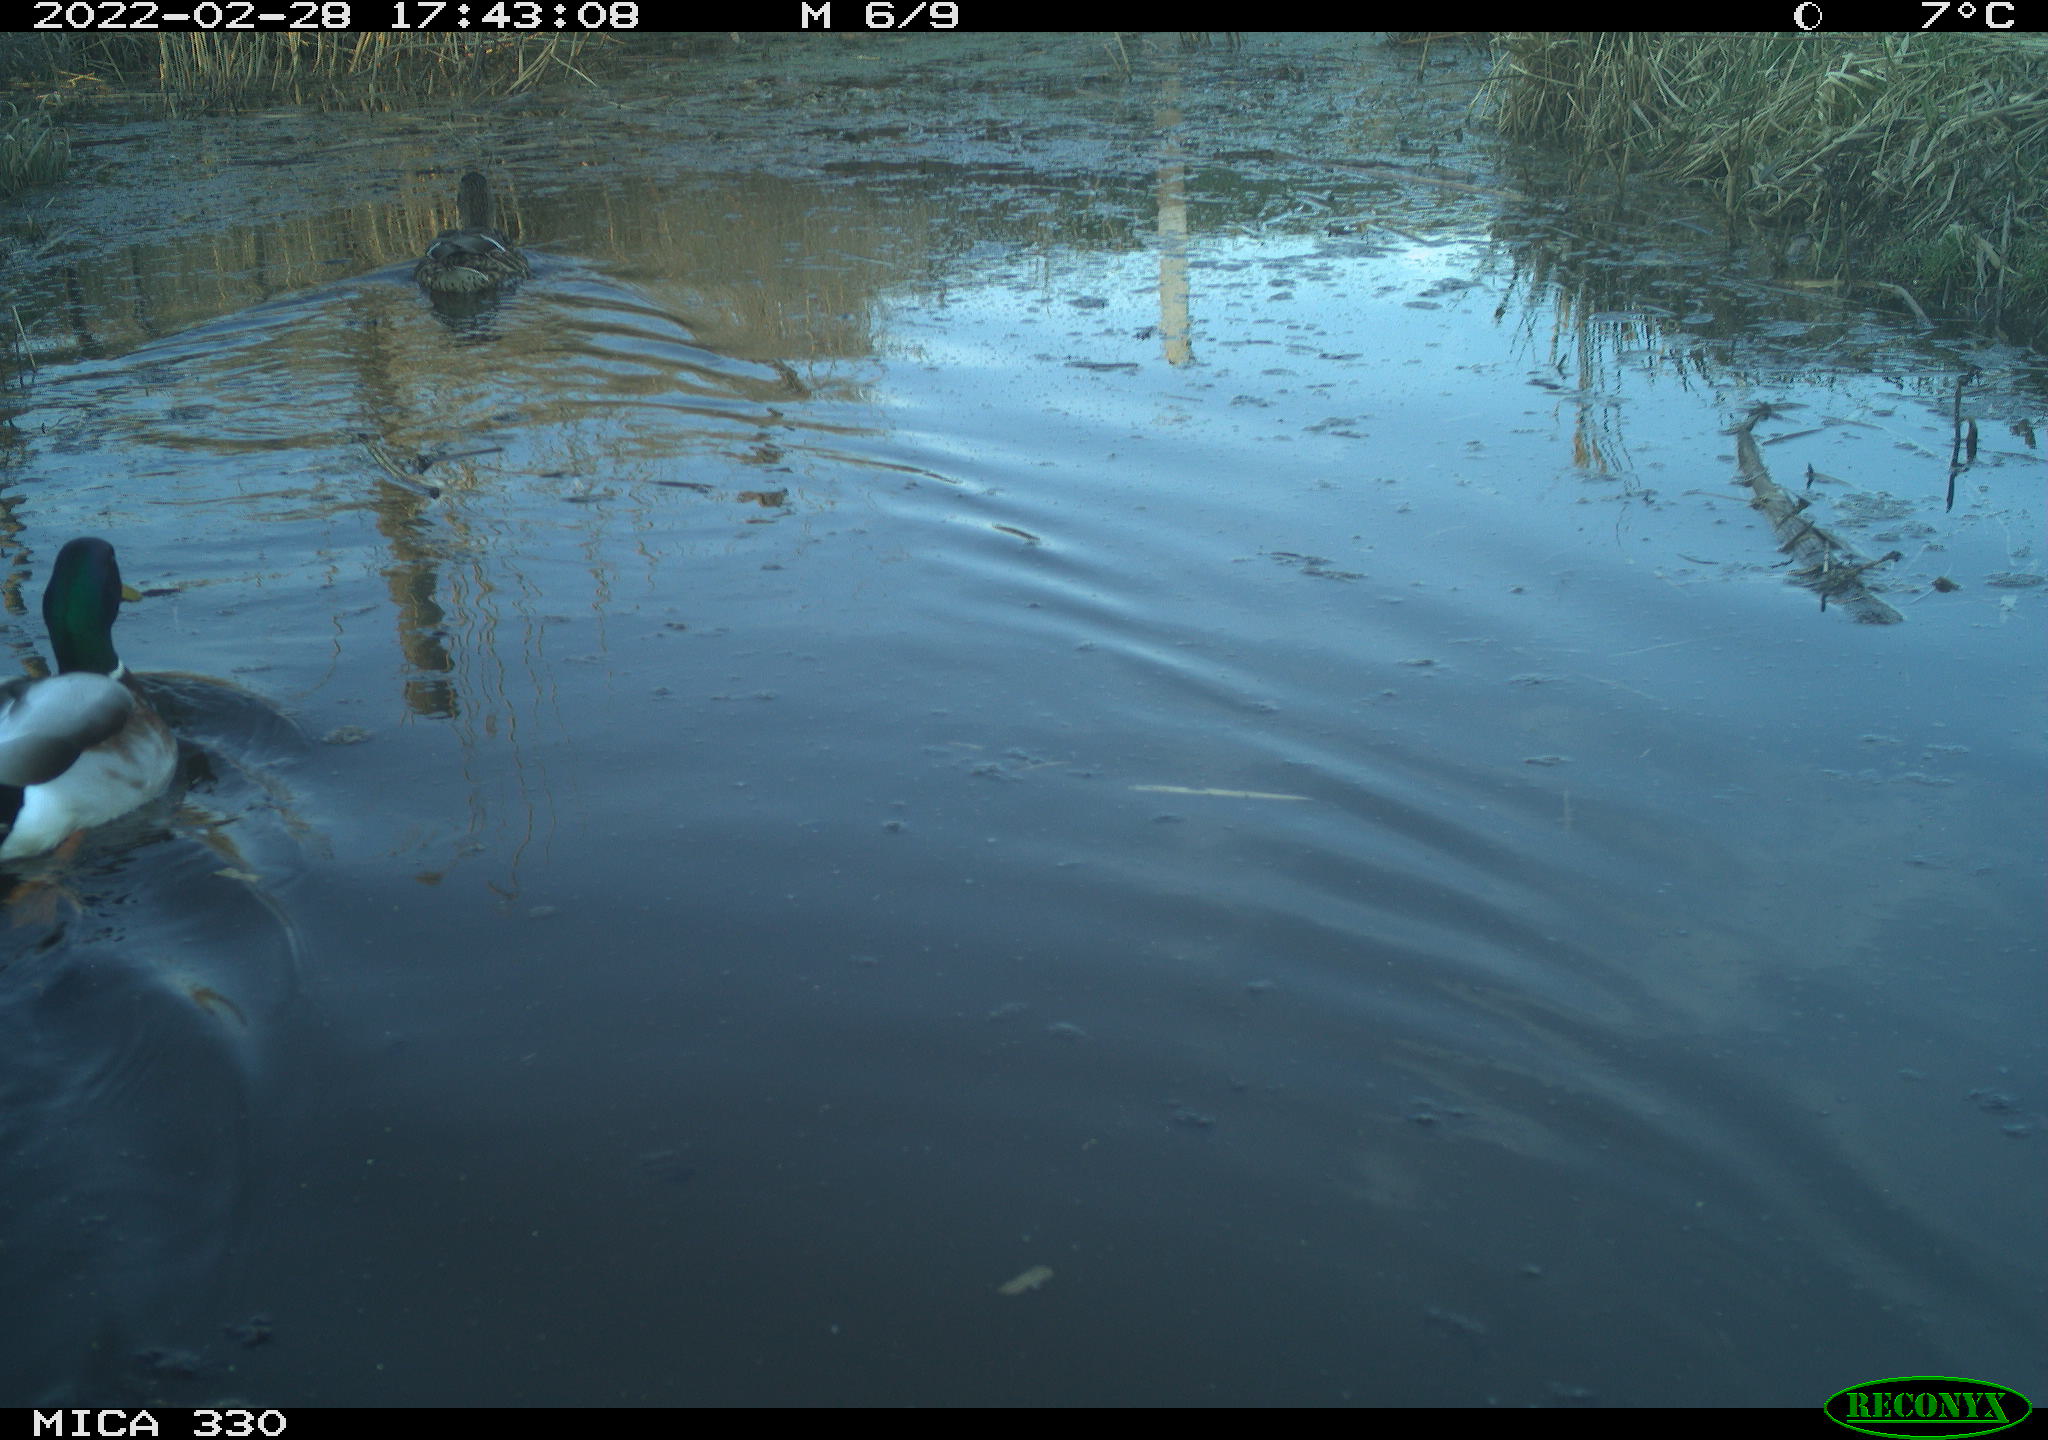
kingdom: Animalia
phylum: Chordata
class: Aves
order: Anseriformes
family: Anatidae
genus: Anas
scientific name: Anas platyrhynchos
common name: Mallard
